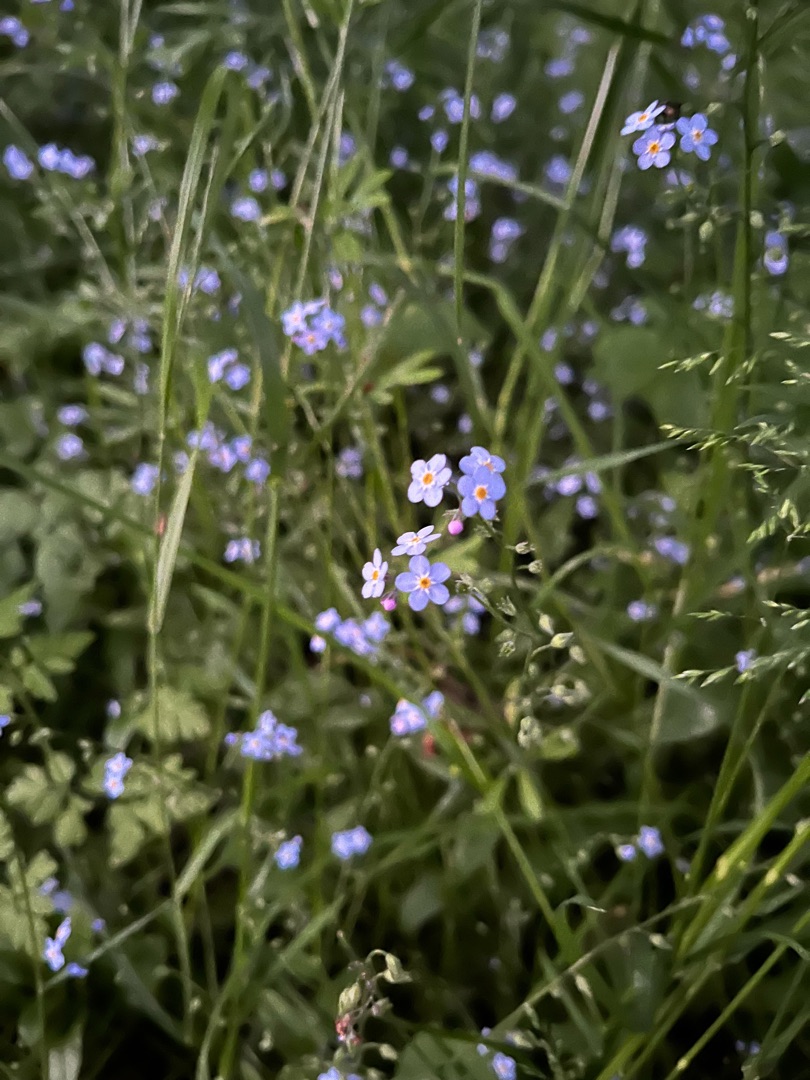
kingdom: Plantae
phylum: Tracheophyta
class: Magnoliopsida
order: Boraginales
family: Boraginaceae
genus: Myosotis
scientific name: Myosotis sylvatica
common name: Skov-forglemmigej
